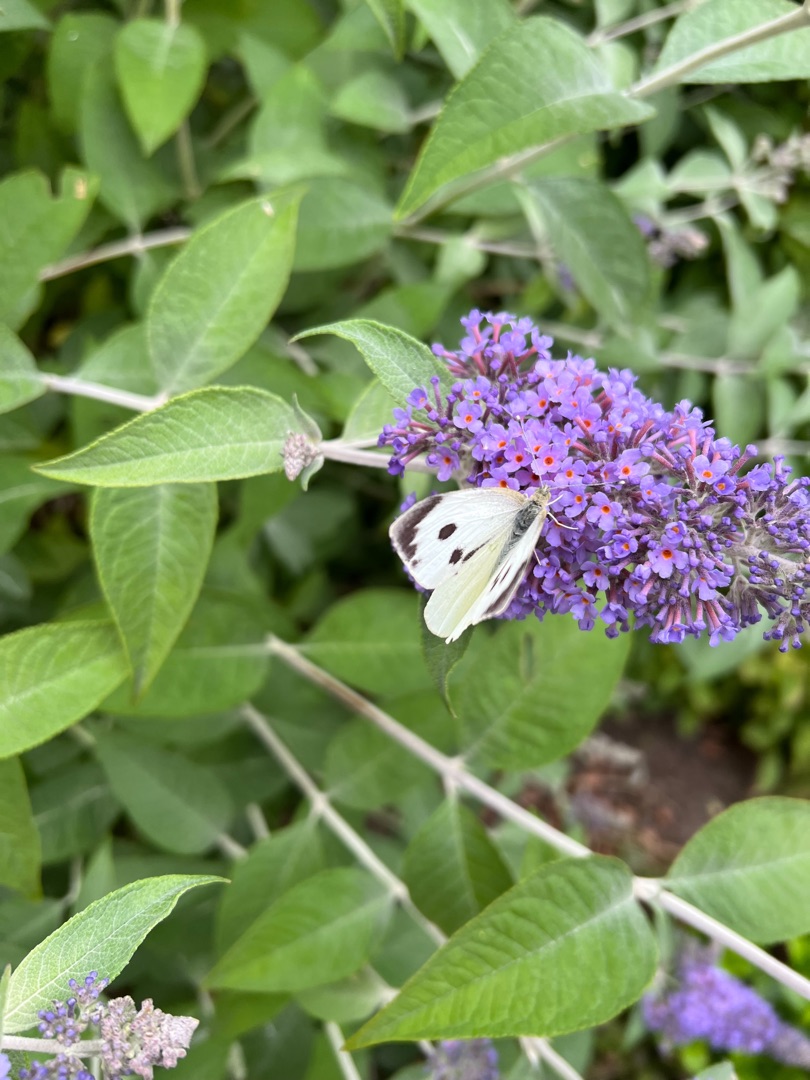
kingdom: Animalia
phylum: Arthropoda
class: Insecta
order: Lepidoptera
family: Pieridae
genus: Pieris
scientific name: Pieris brassicae
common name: Stor kålsommerfugl
